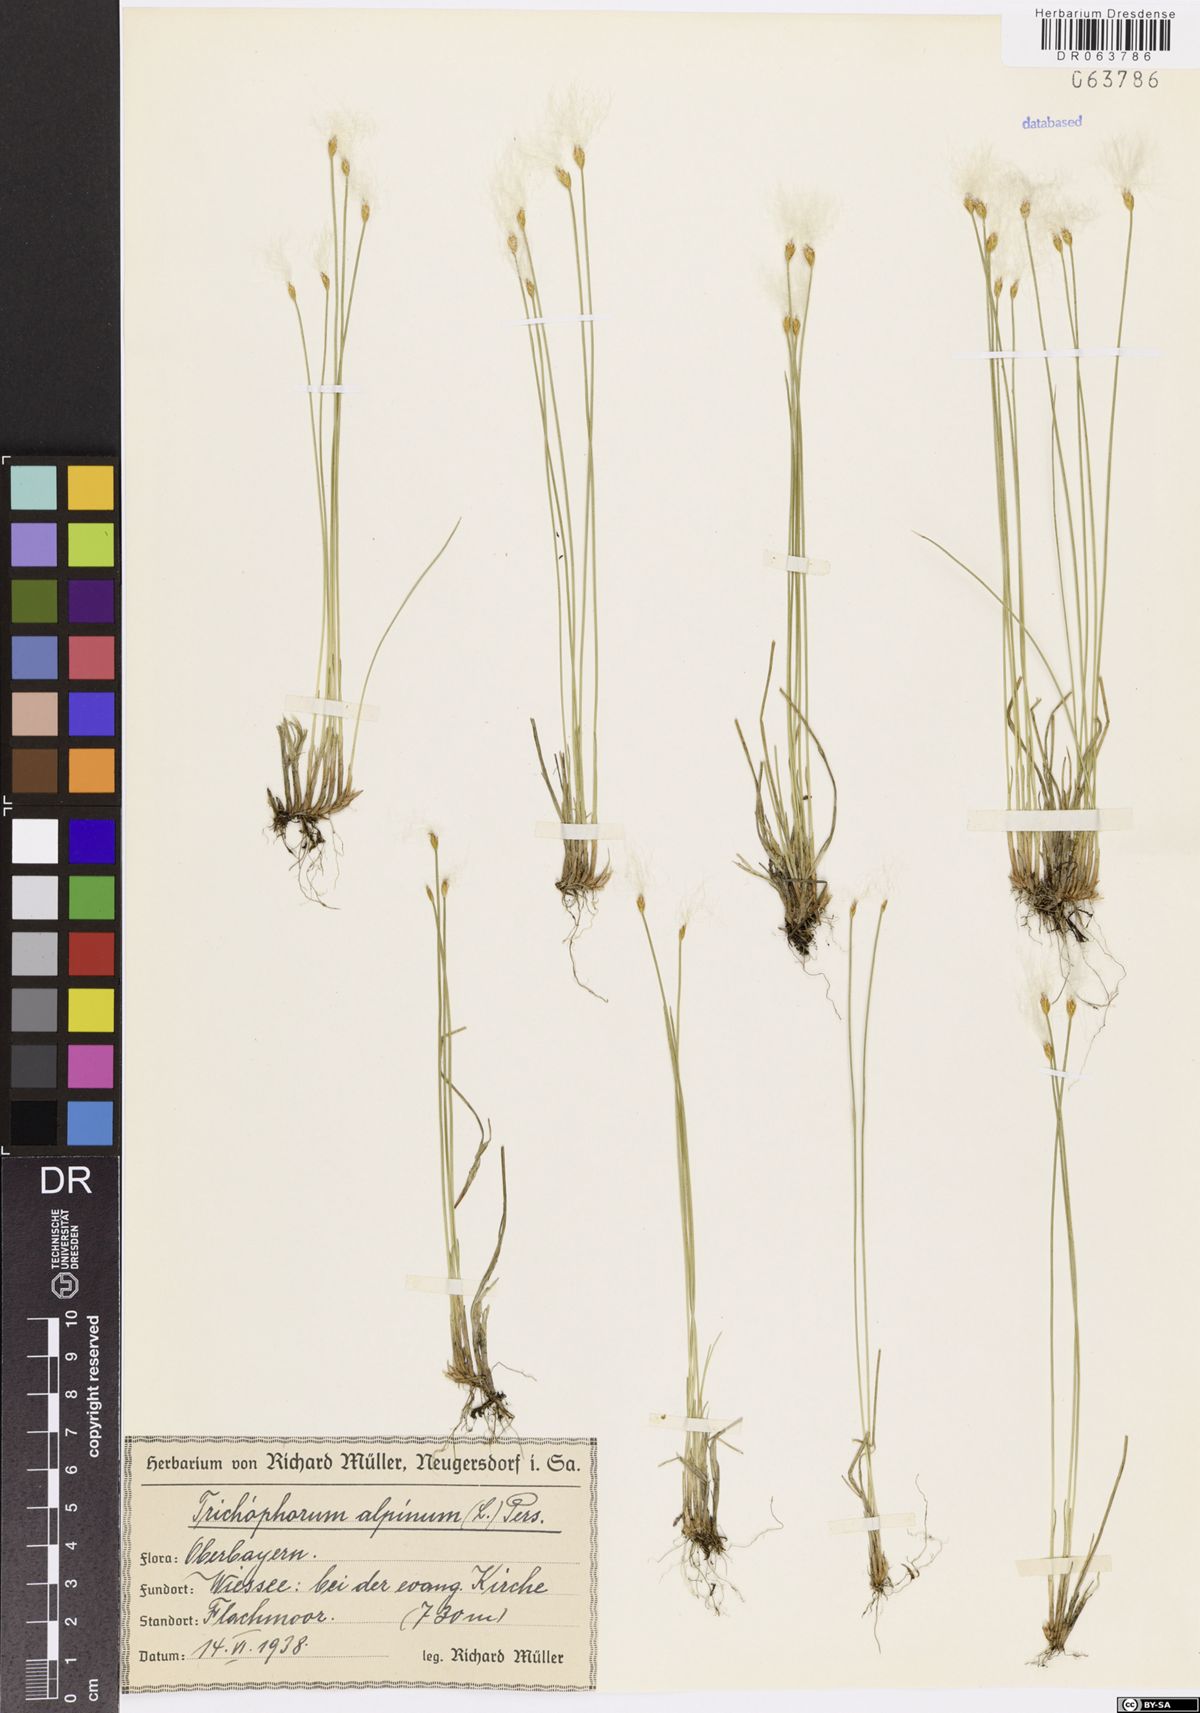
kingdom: Plantae
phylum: Tracheophyta
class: Liliopsida
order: Poales
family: Cyperaceae
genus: Trichophorum
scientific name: Trichophorum alpinum
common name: Alpine bulrush
